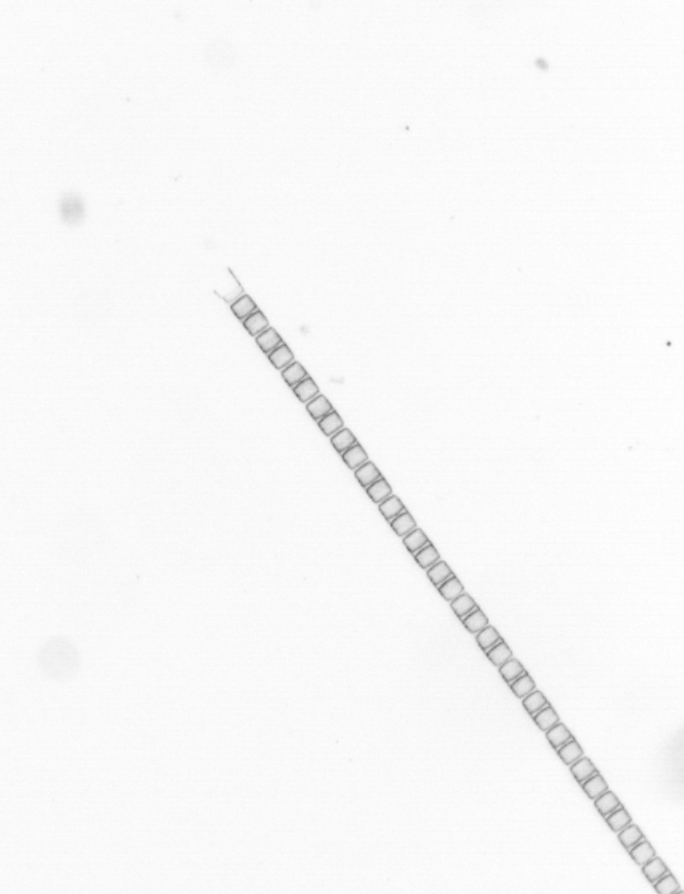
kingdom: Chromista
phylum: Ochrophyta
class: Bacillariophyceae
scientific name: Bacillariophyceae
